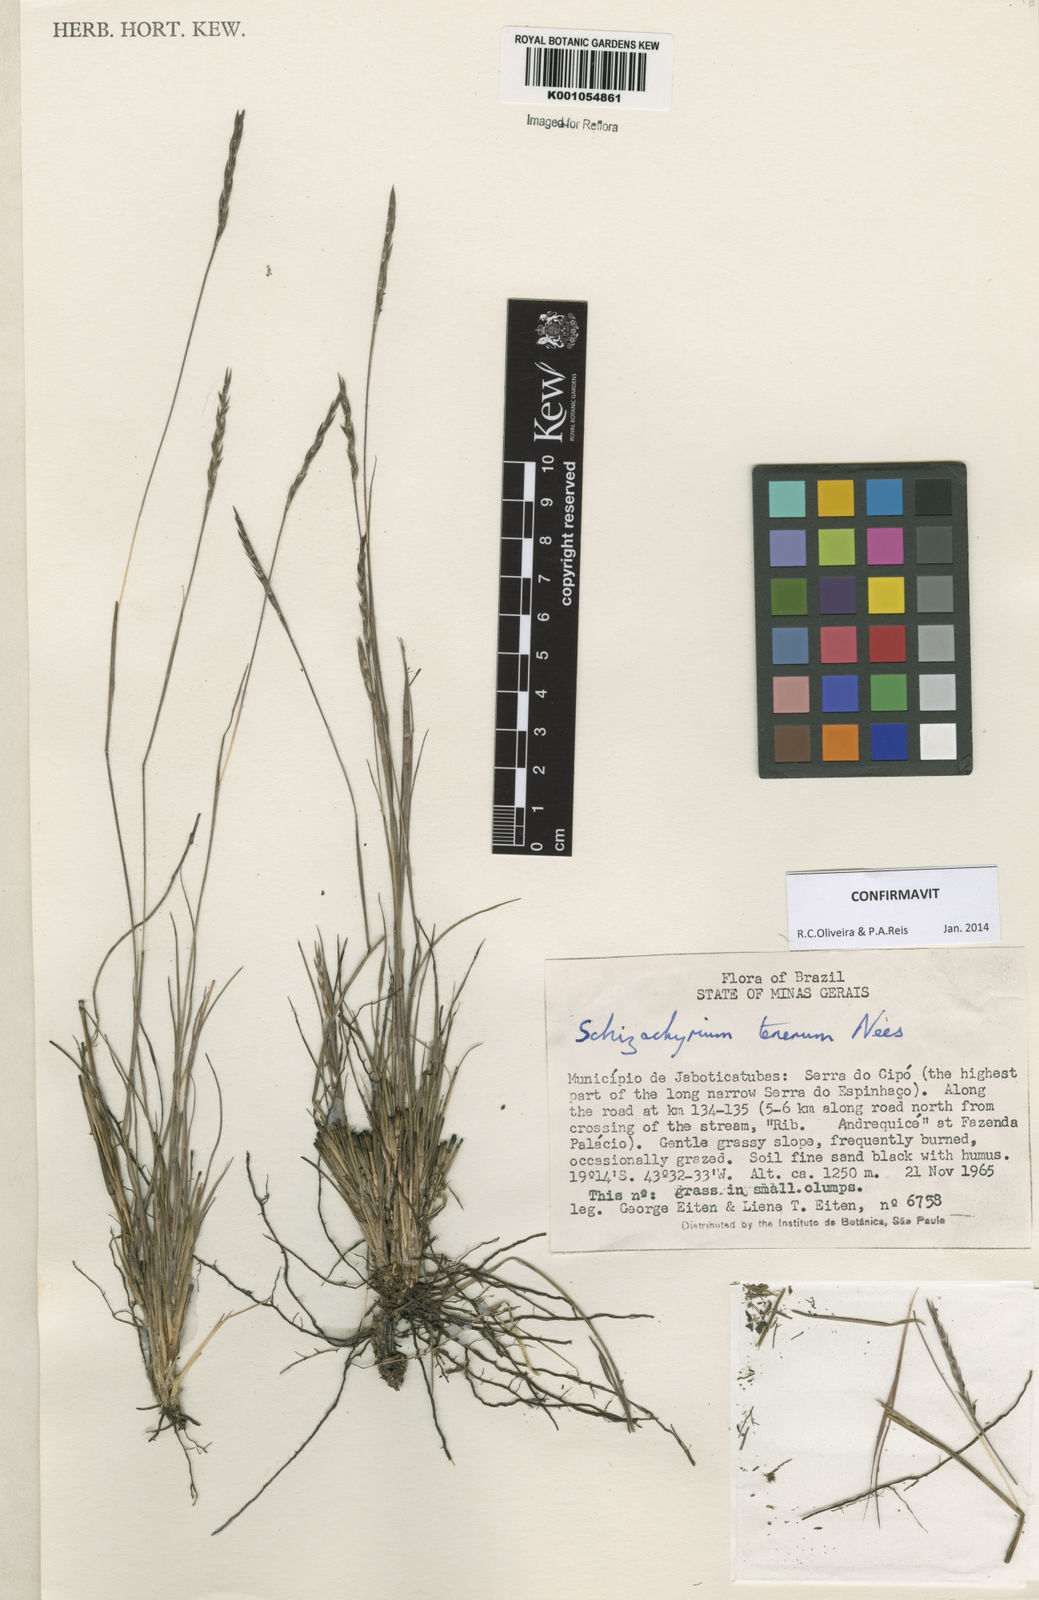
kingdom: Plantae
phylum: Tracheophyta
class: Liliopsida
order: Poales
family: Poaceae
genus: Andropogon
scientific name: Andropogon tener
